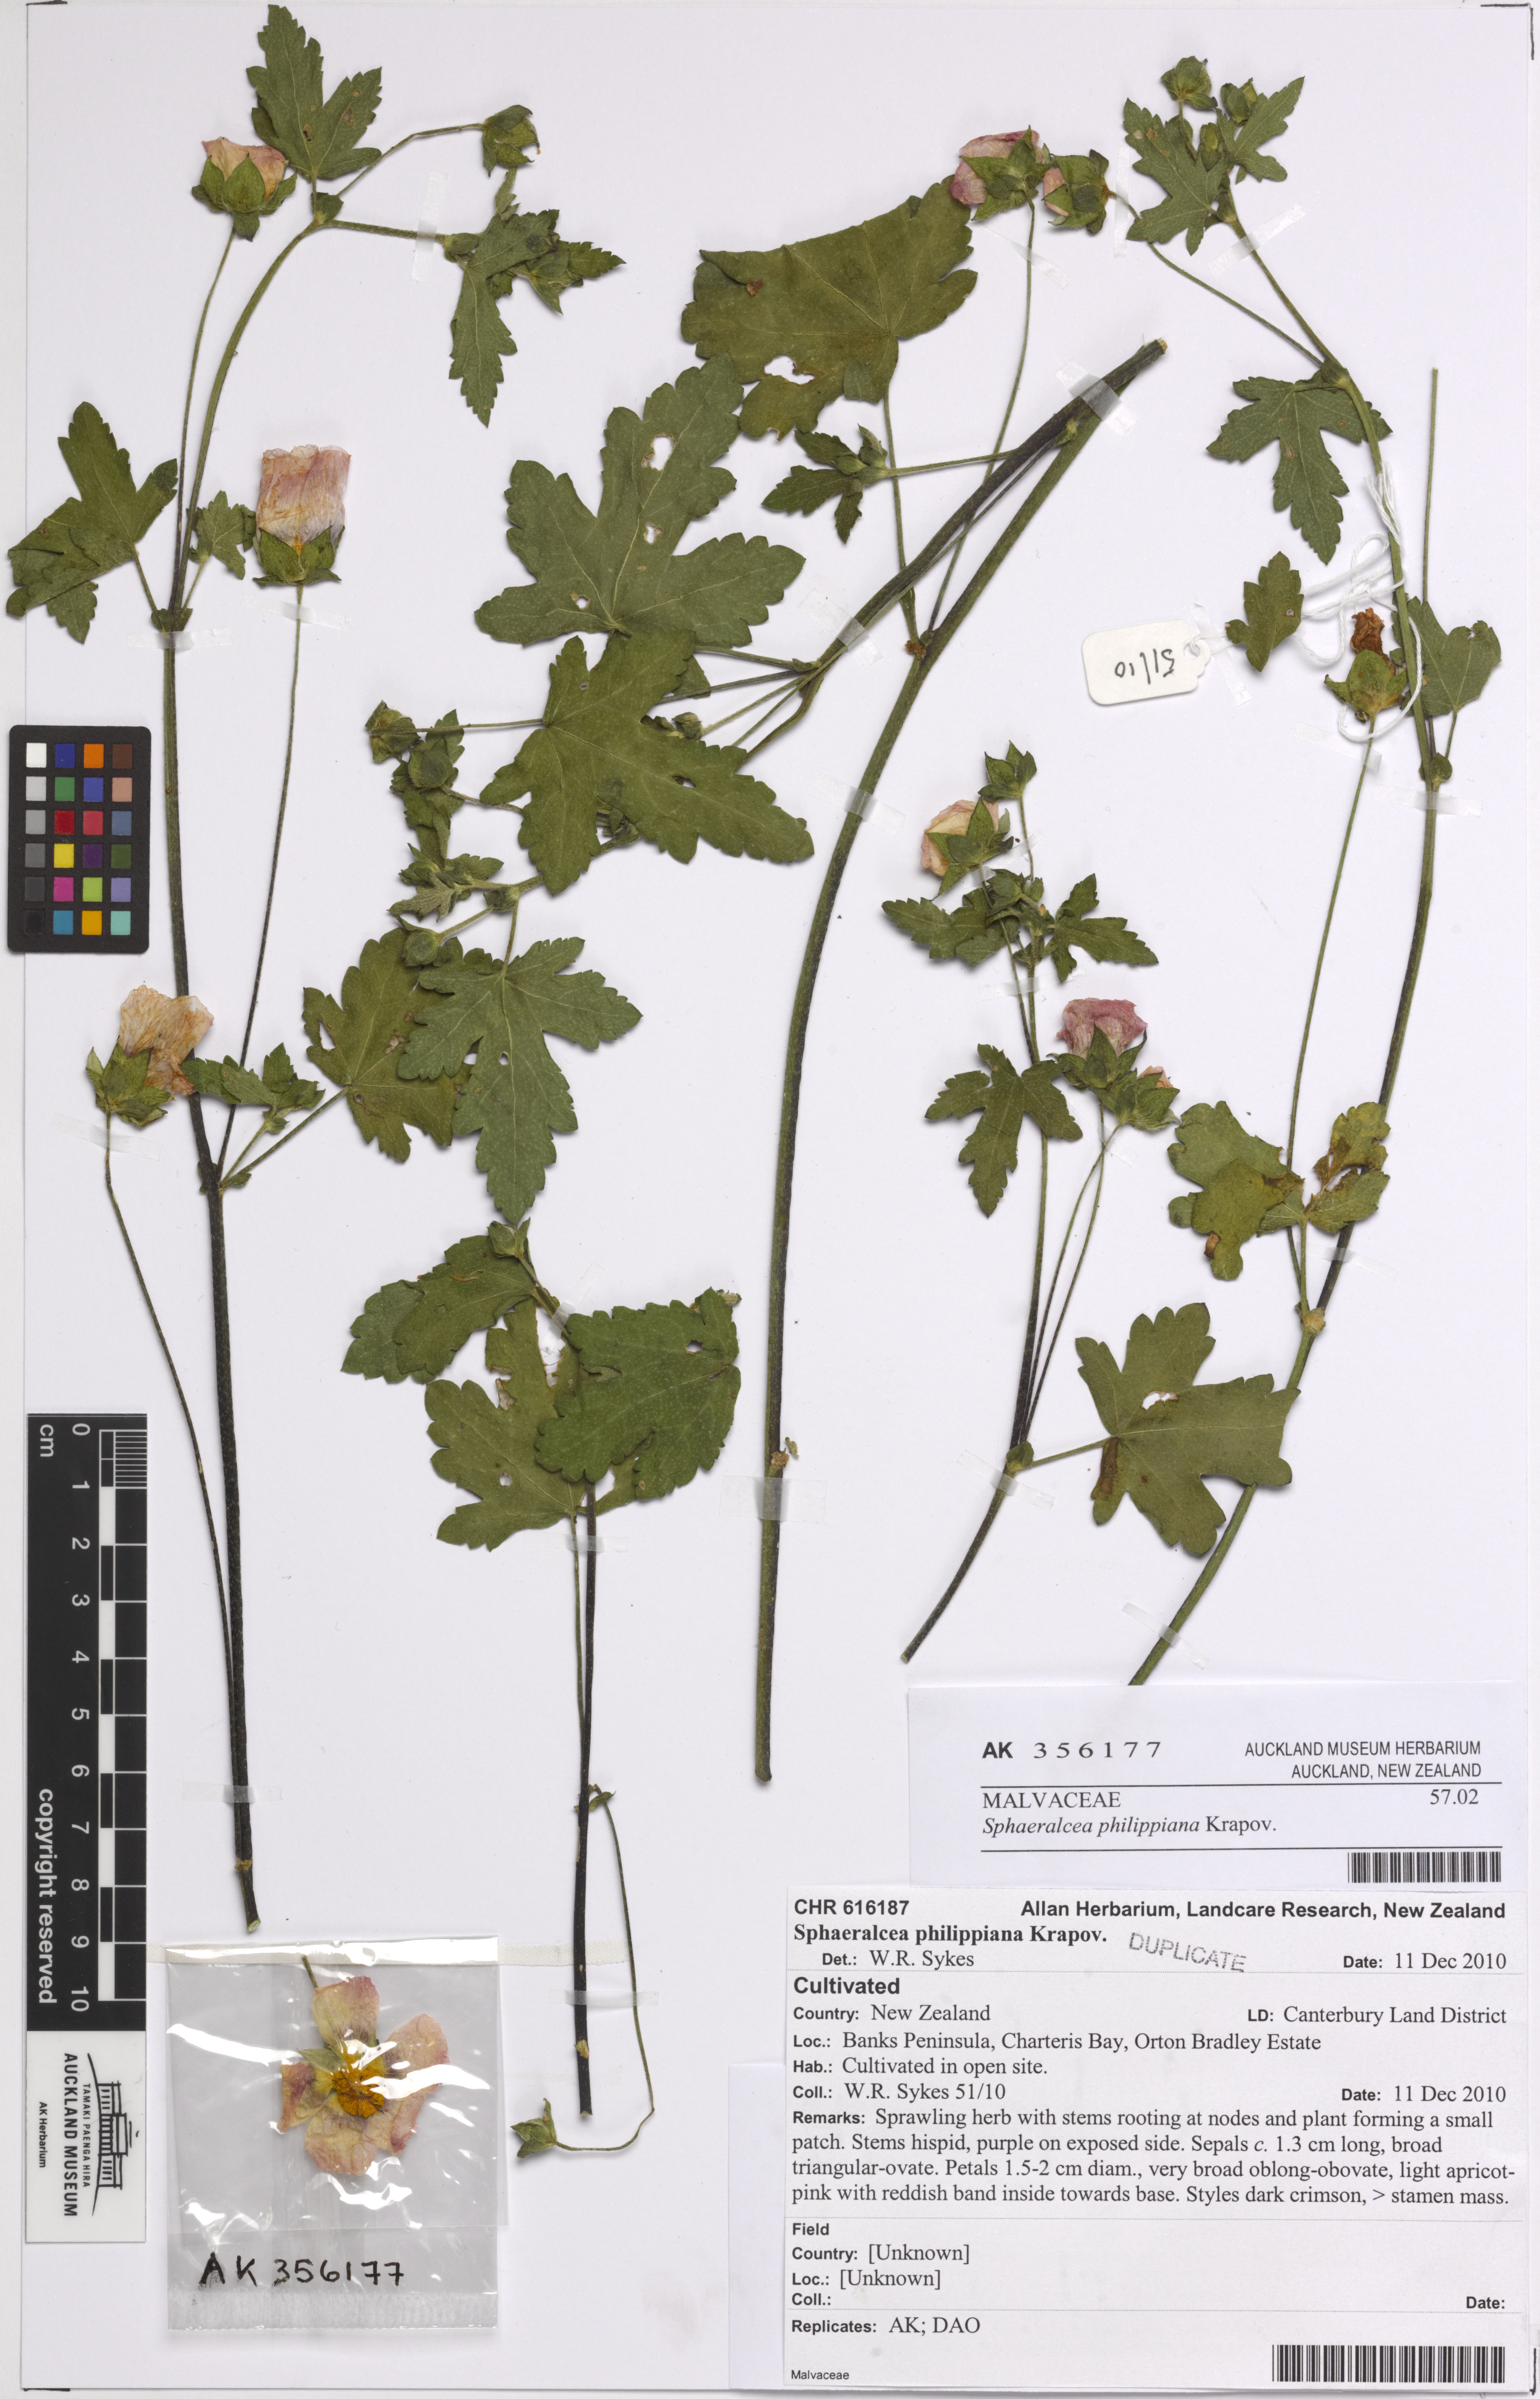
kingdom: Plantae
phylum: Tracheophyta
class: Magnoliopsida
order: Malvales
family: Malvaceae
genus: Malvastrum
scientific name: Malvastrum
